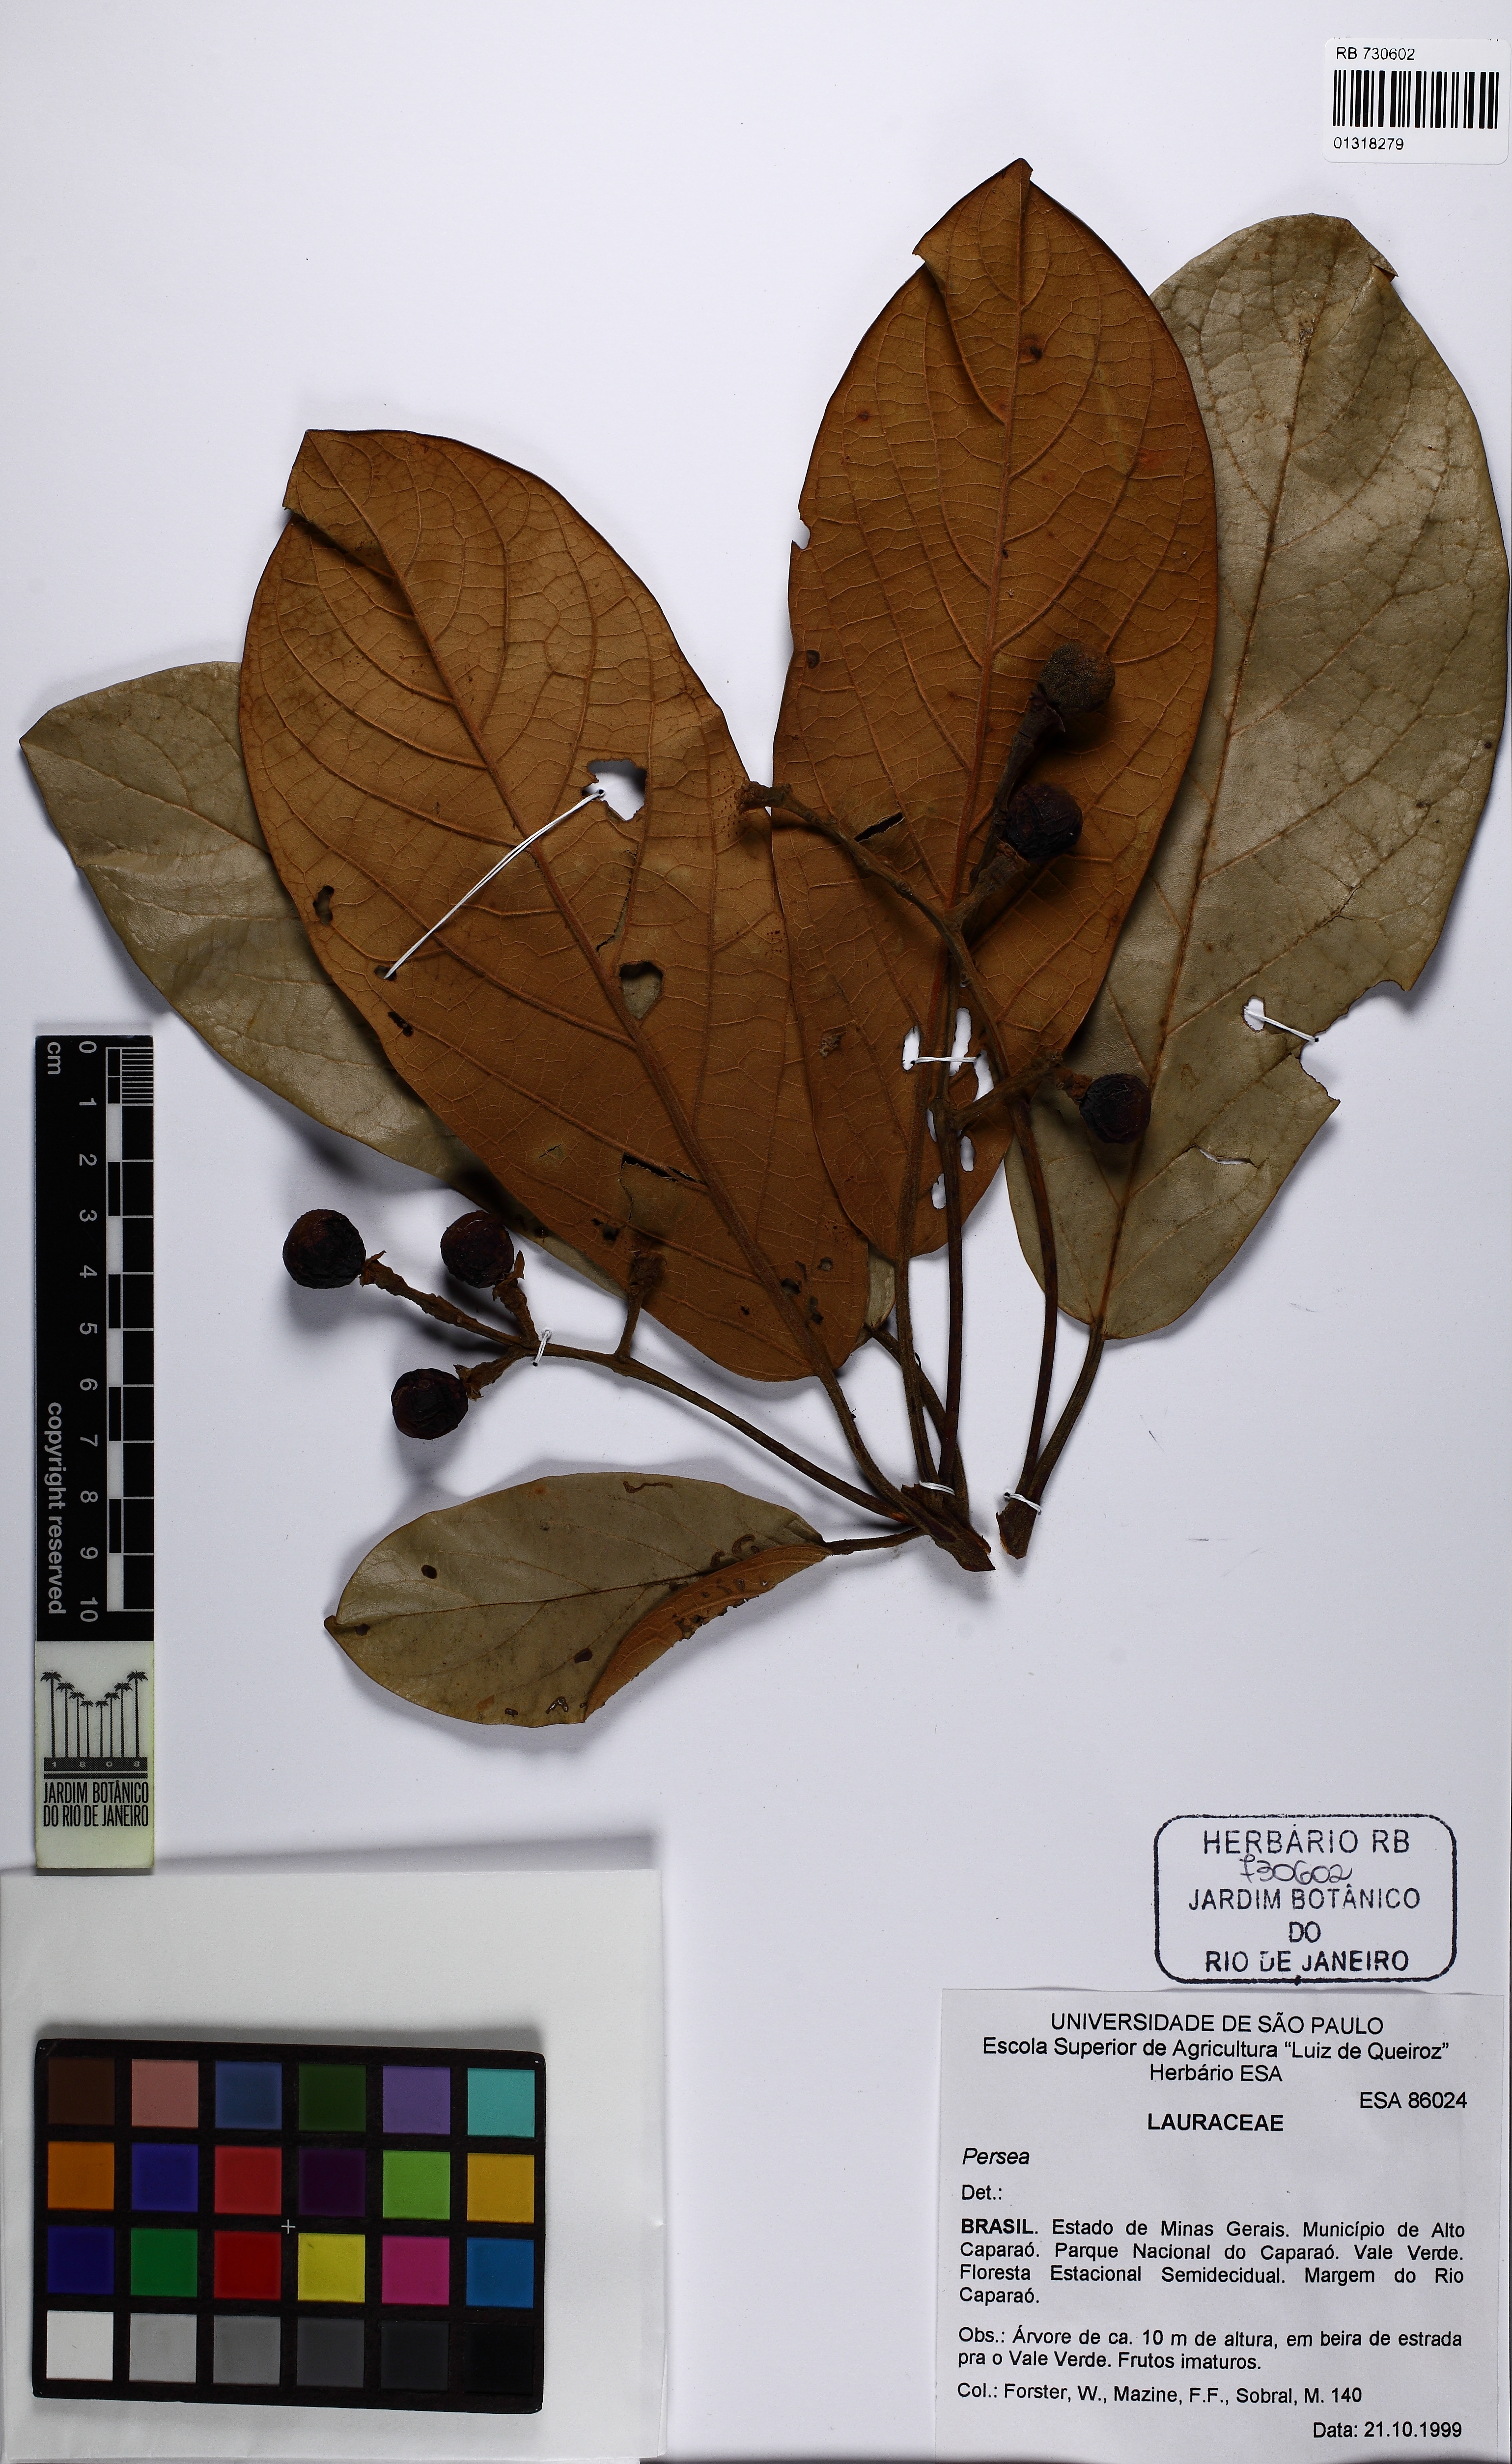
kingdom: Plantae
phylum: Tracheophyta
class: Magnoliopsida
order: Laurales
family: Lauraceae
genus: Persea
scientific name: Persea
